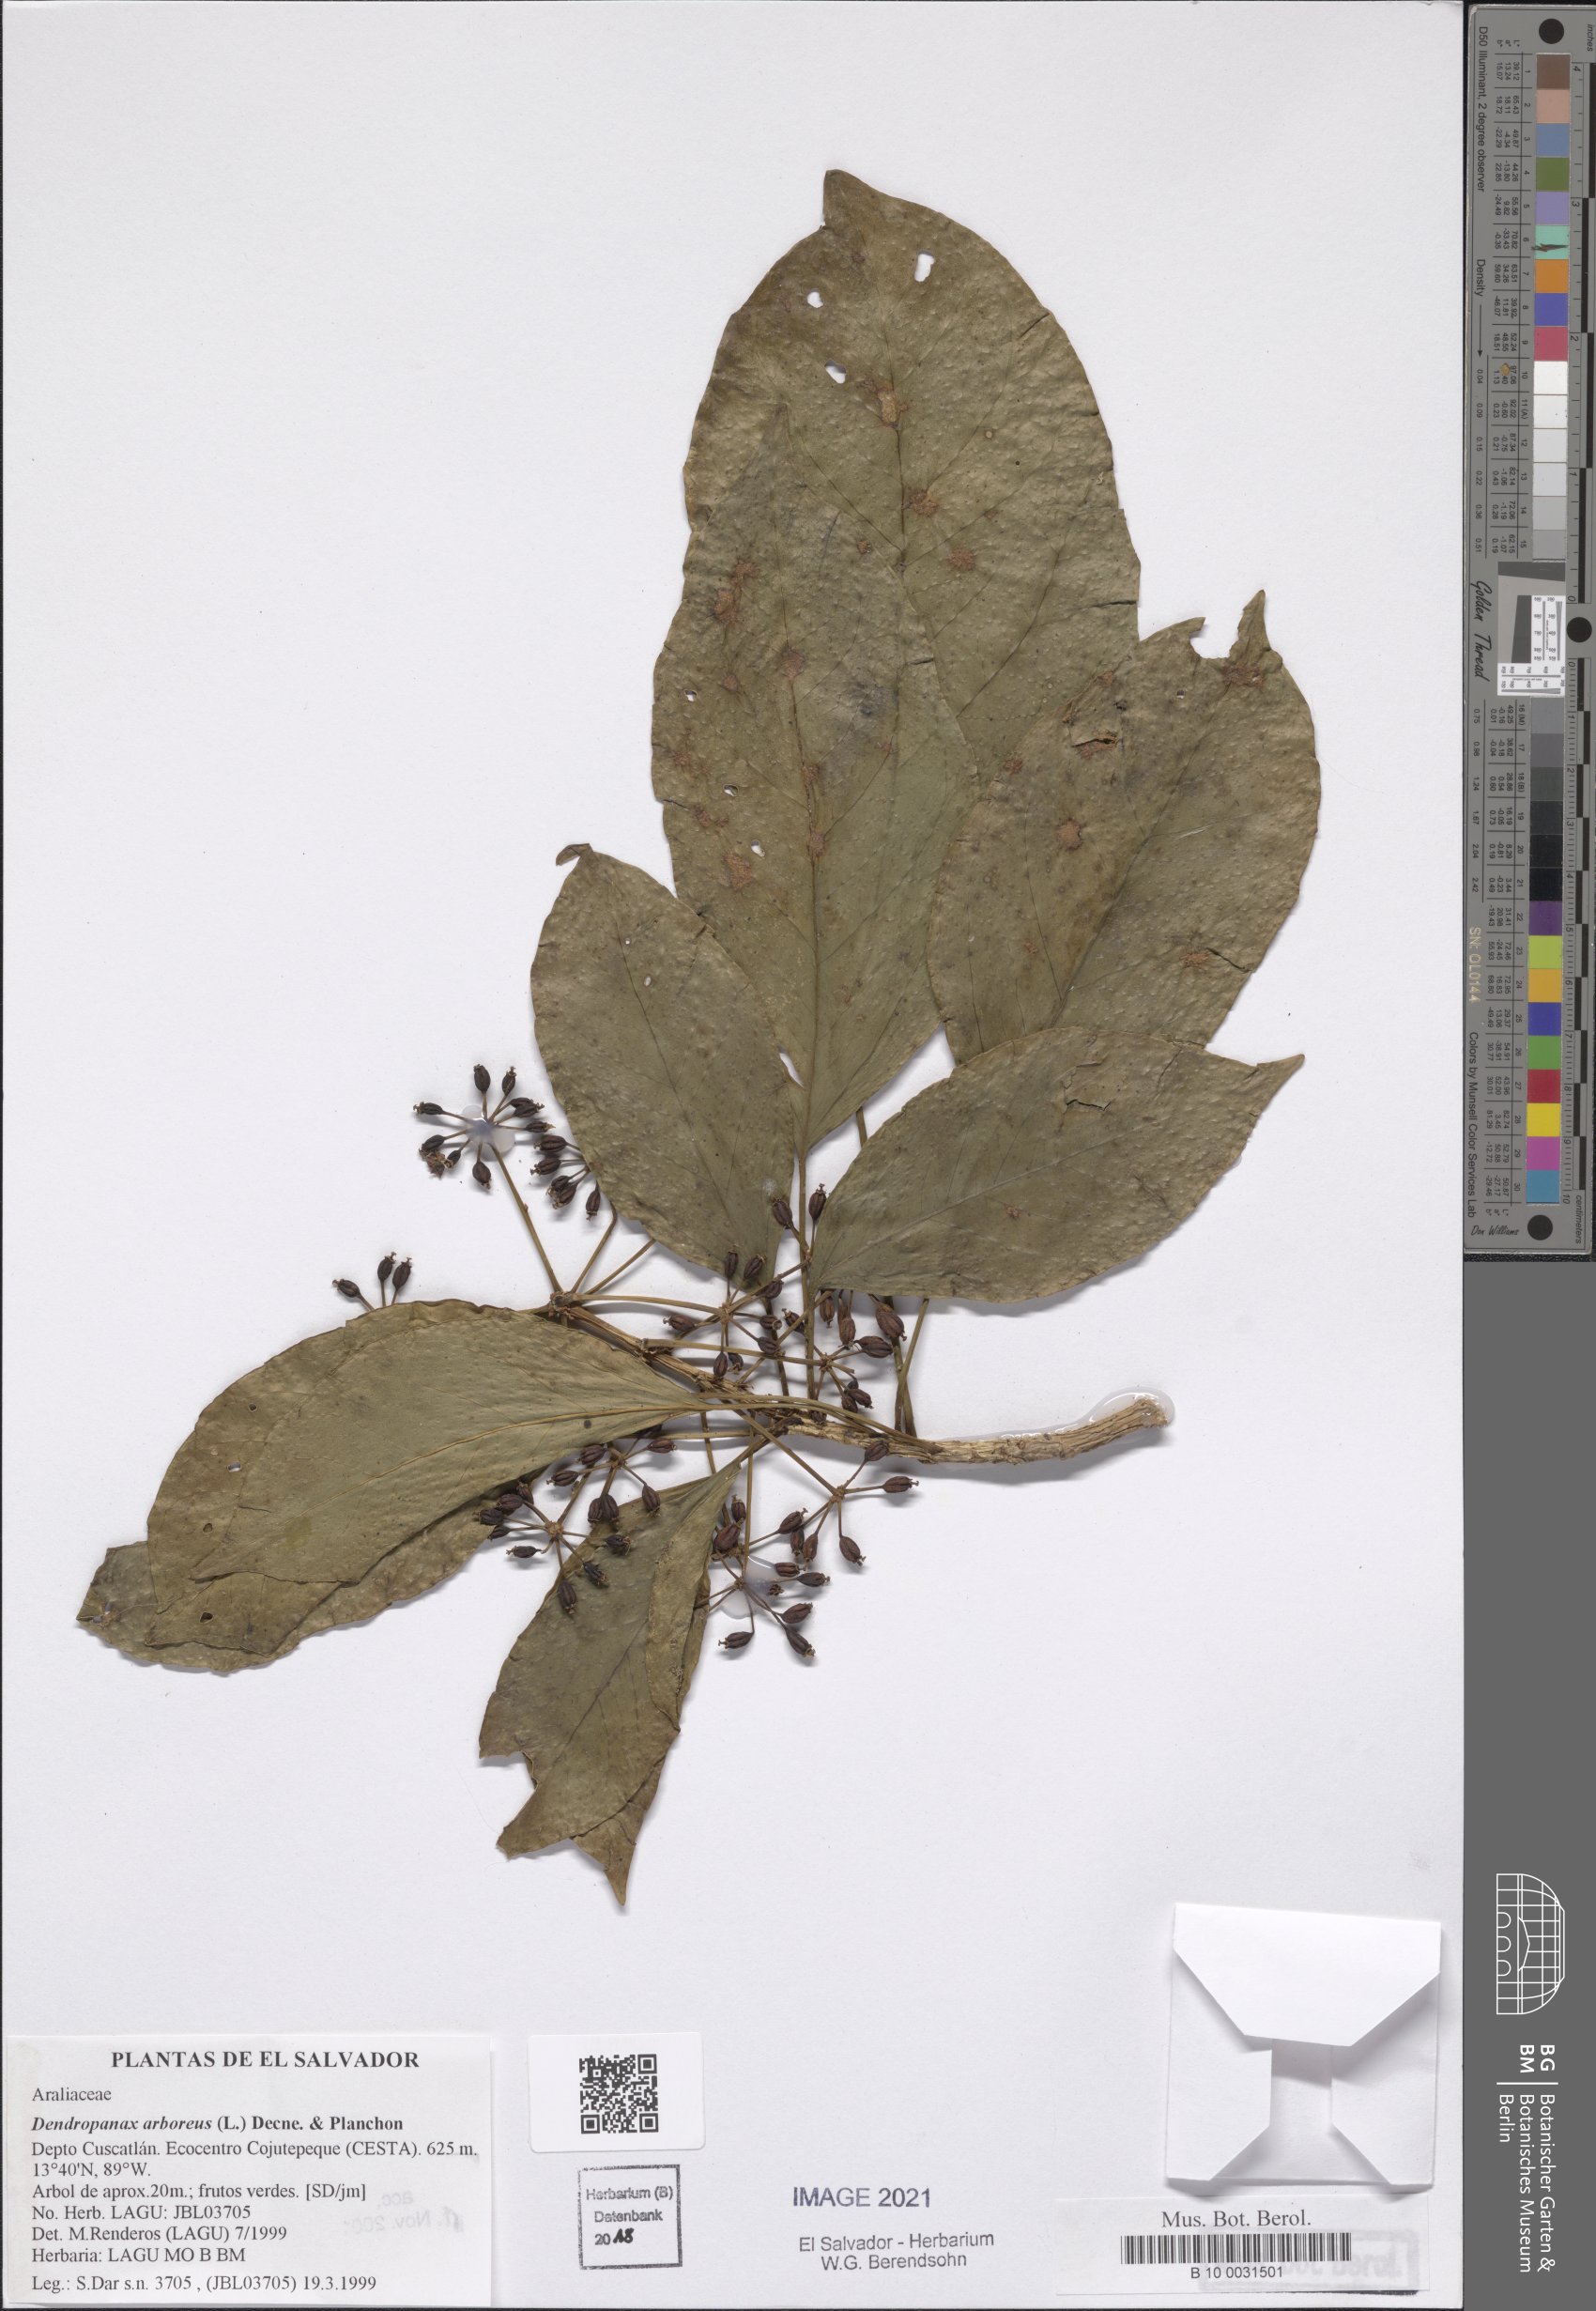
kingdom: Plantae
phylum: Tracheophyta
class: Magnoliopsida
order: Apiales
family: Araliaceae
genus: Dendropanax
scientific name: Dendropanax arboreus
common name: Potato-wood
